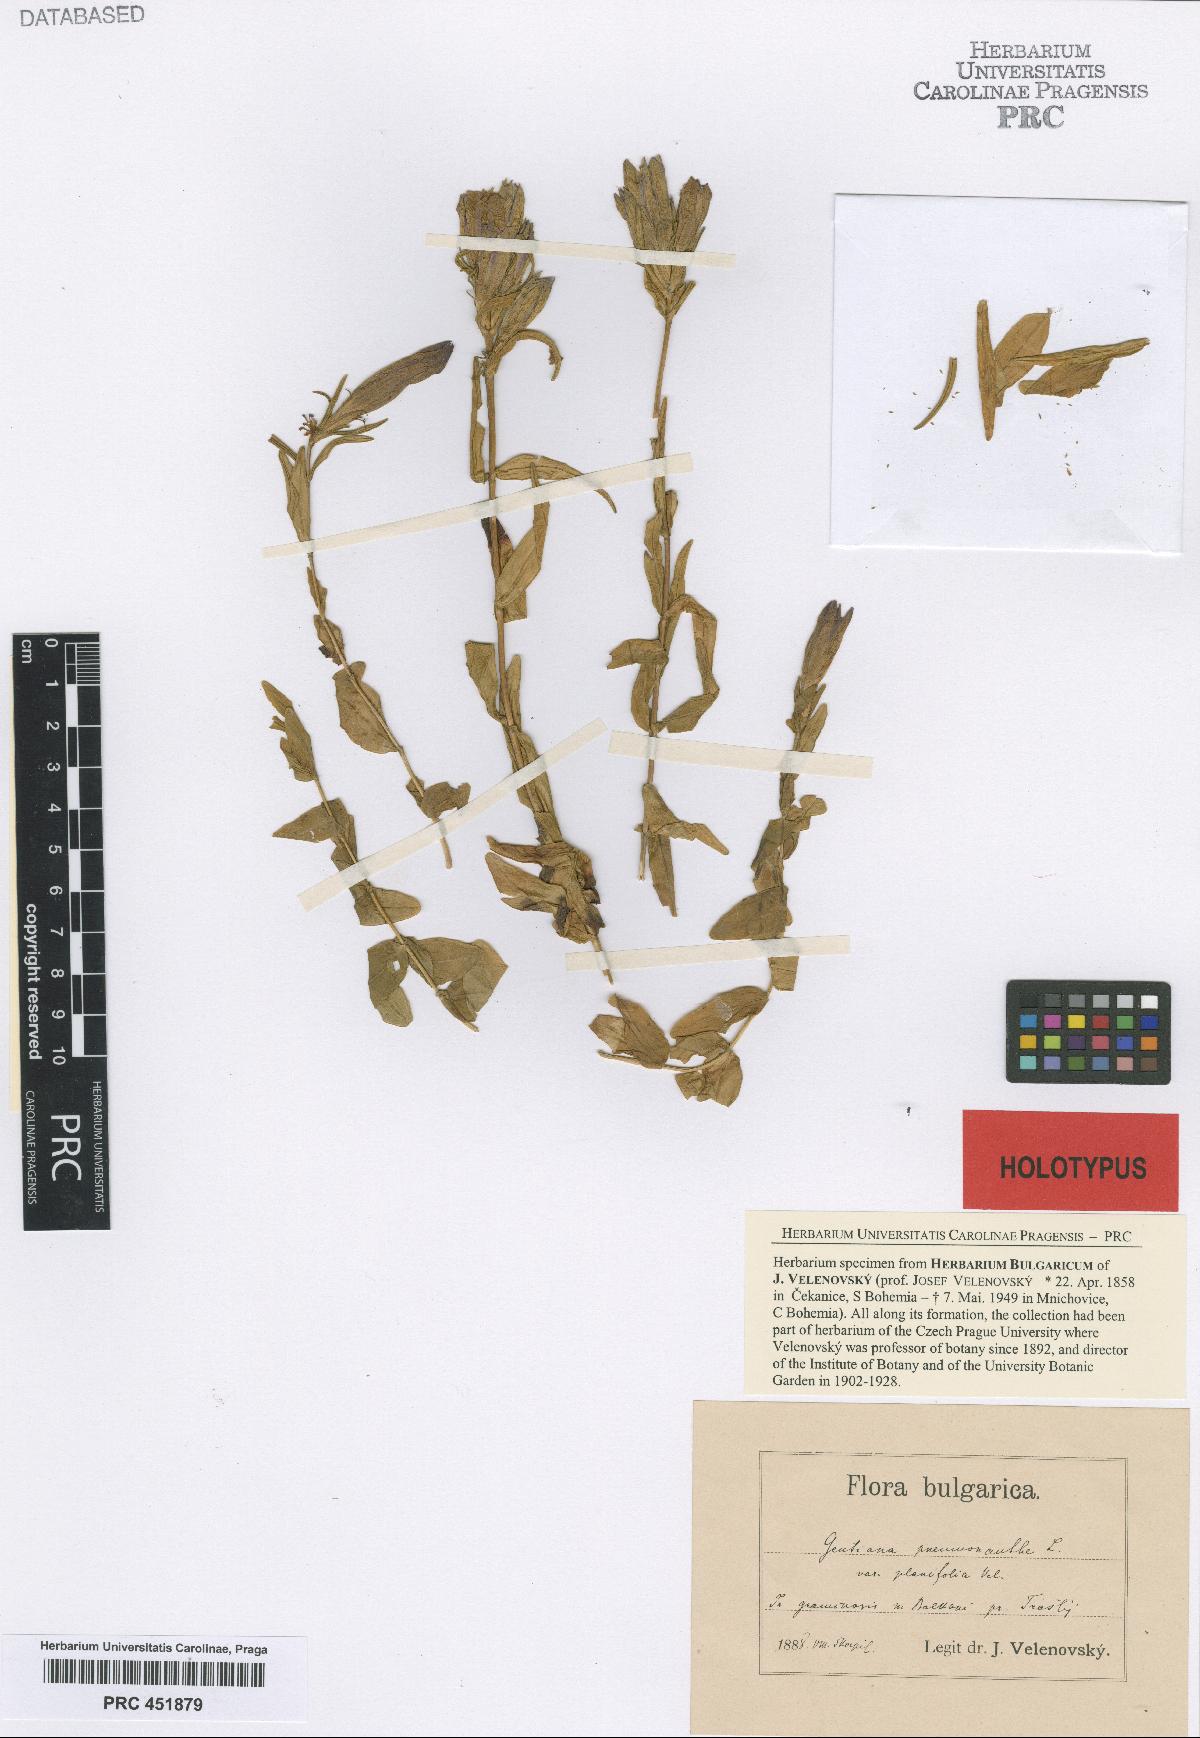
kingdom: Plantae
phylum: Tracheophyta
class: Magnoliopsida
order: Gentianales
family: Gentianaceae
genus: Gentiana
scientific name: Gentiana pneumonanthe
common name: Marsh gentian
